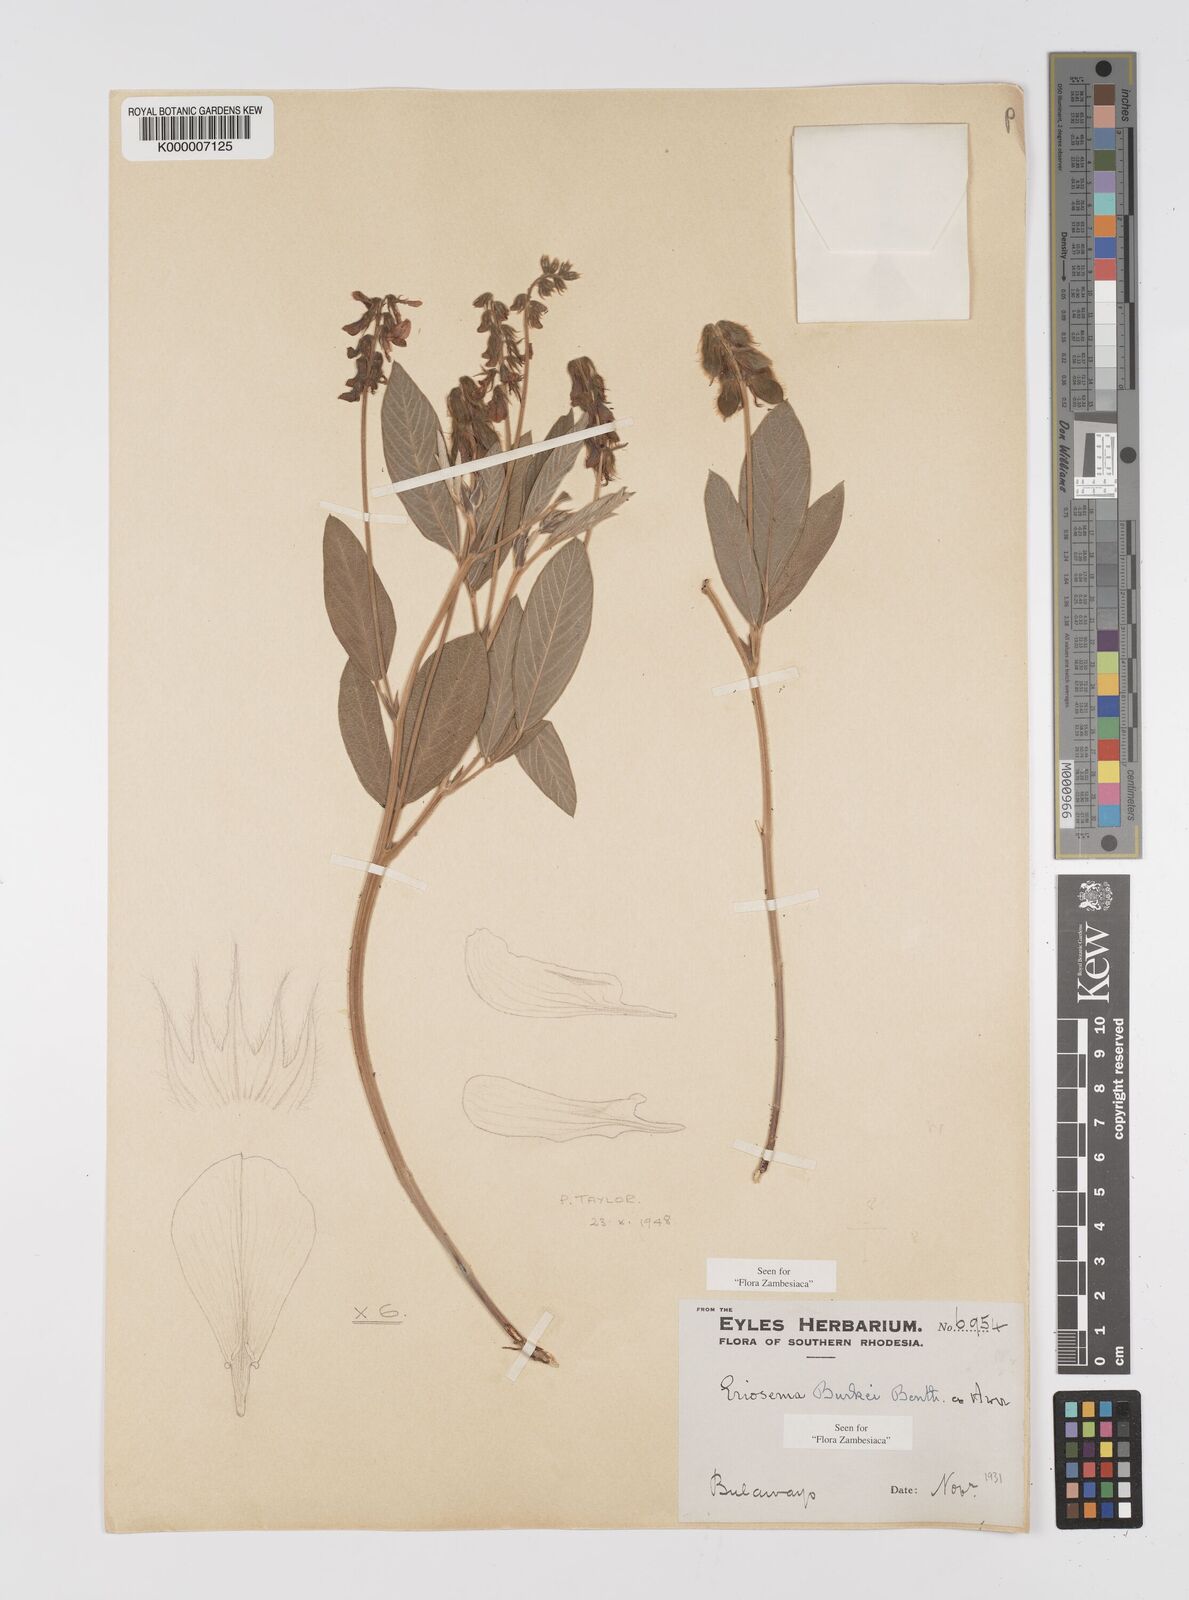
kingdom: Plantae
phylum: Tracheophyta
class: Magnoliopsida
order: Fabales
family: Fabaceae
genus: Eriosema
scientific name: Eriosema burkei
